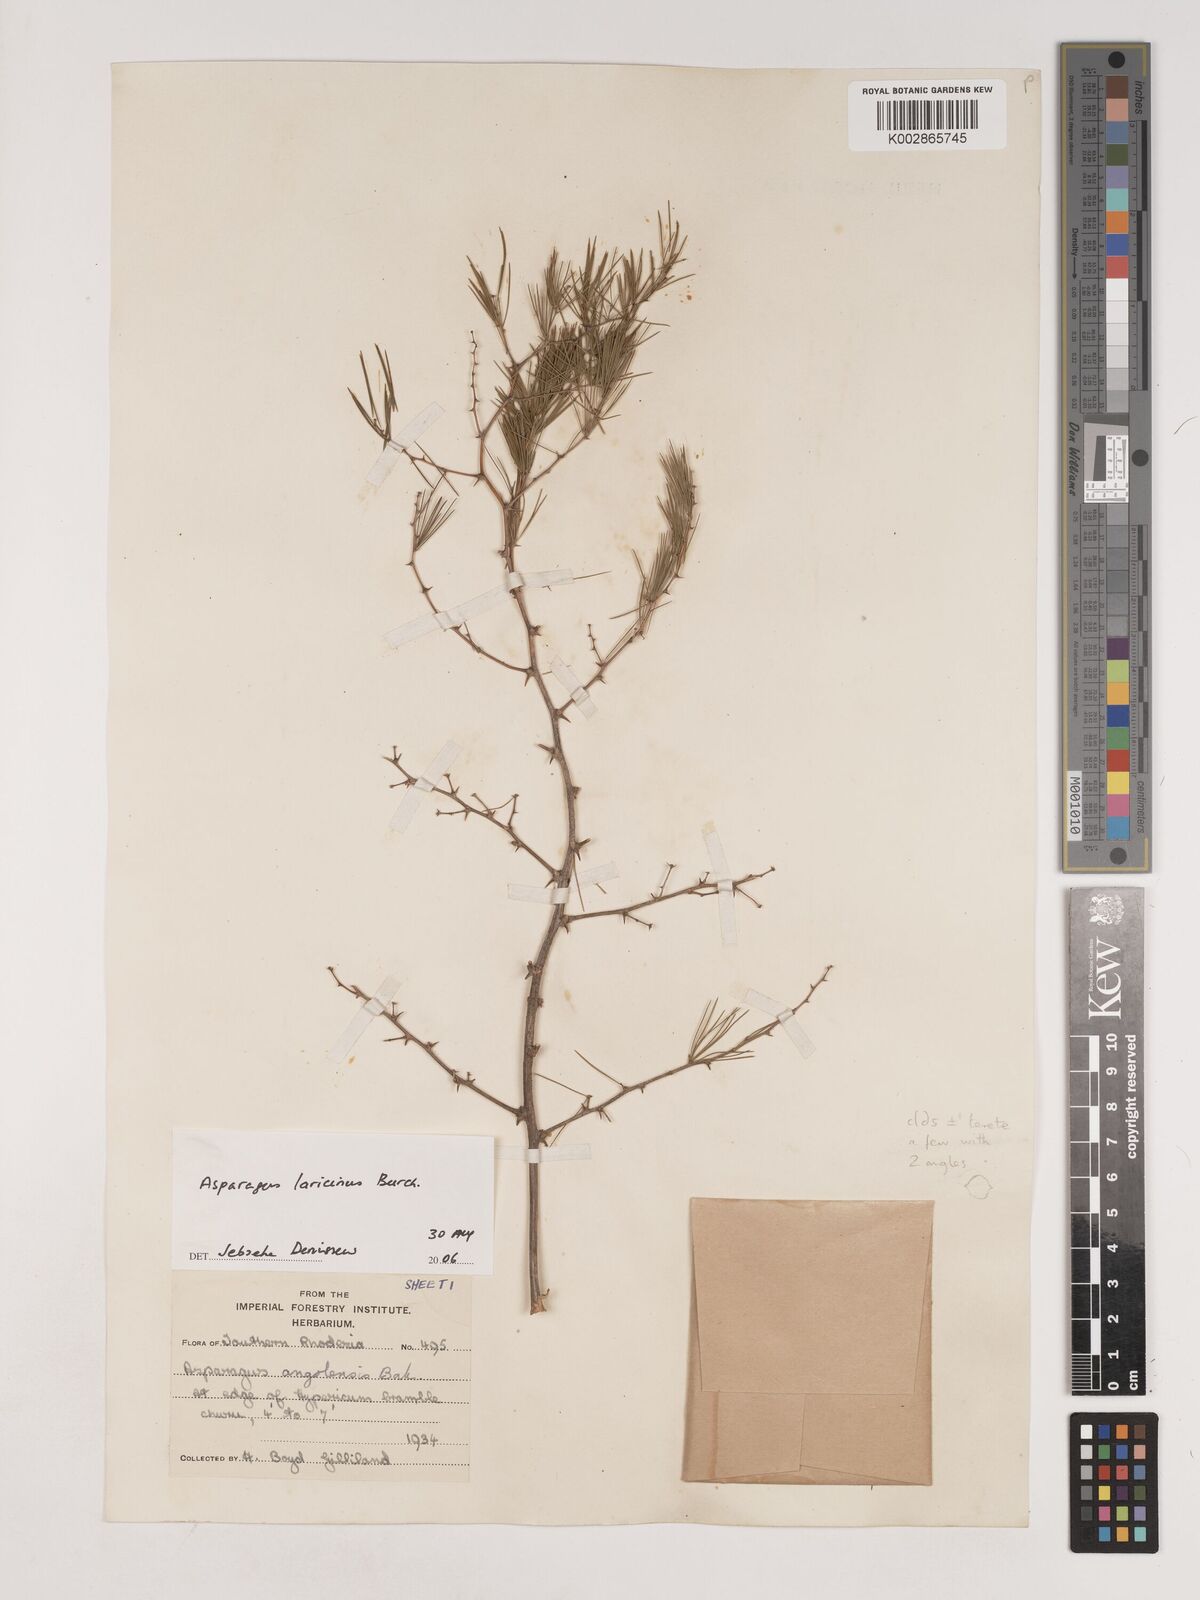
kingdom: Plantae
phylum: Tracheophyta
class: Liliopsida
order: Asparagales
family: Asparagaceae
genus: Asparagus
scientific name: Asparagus laricinus
